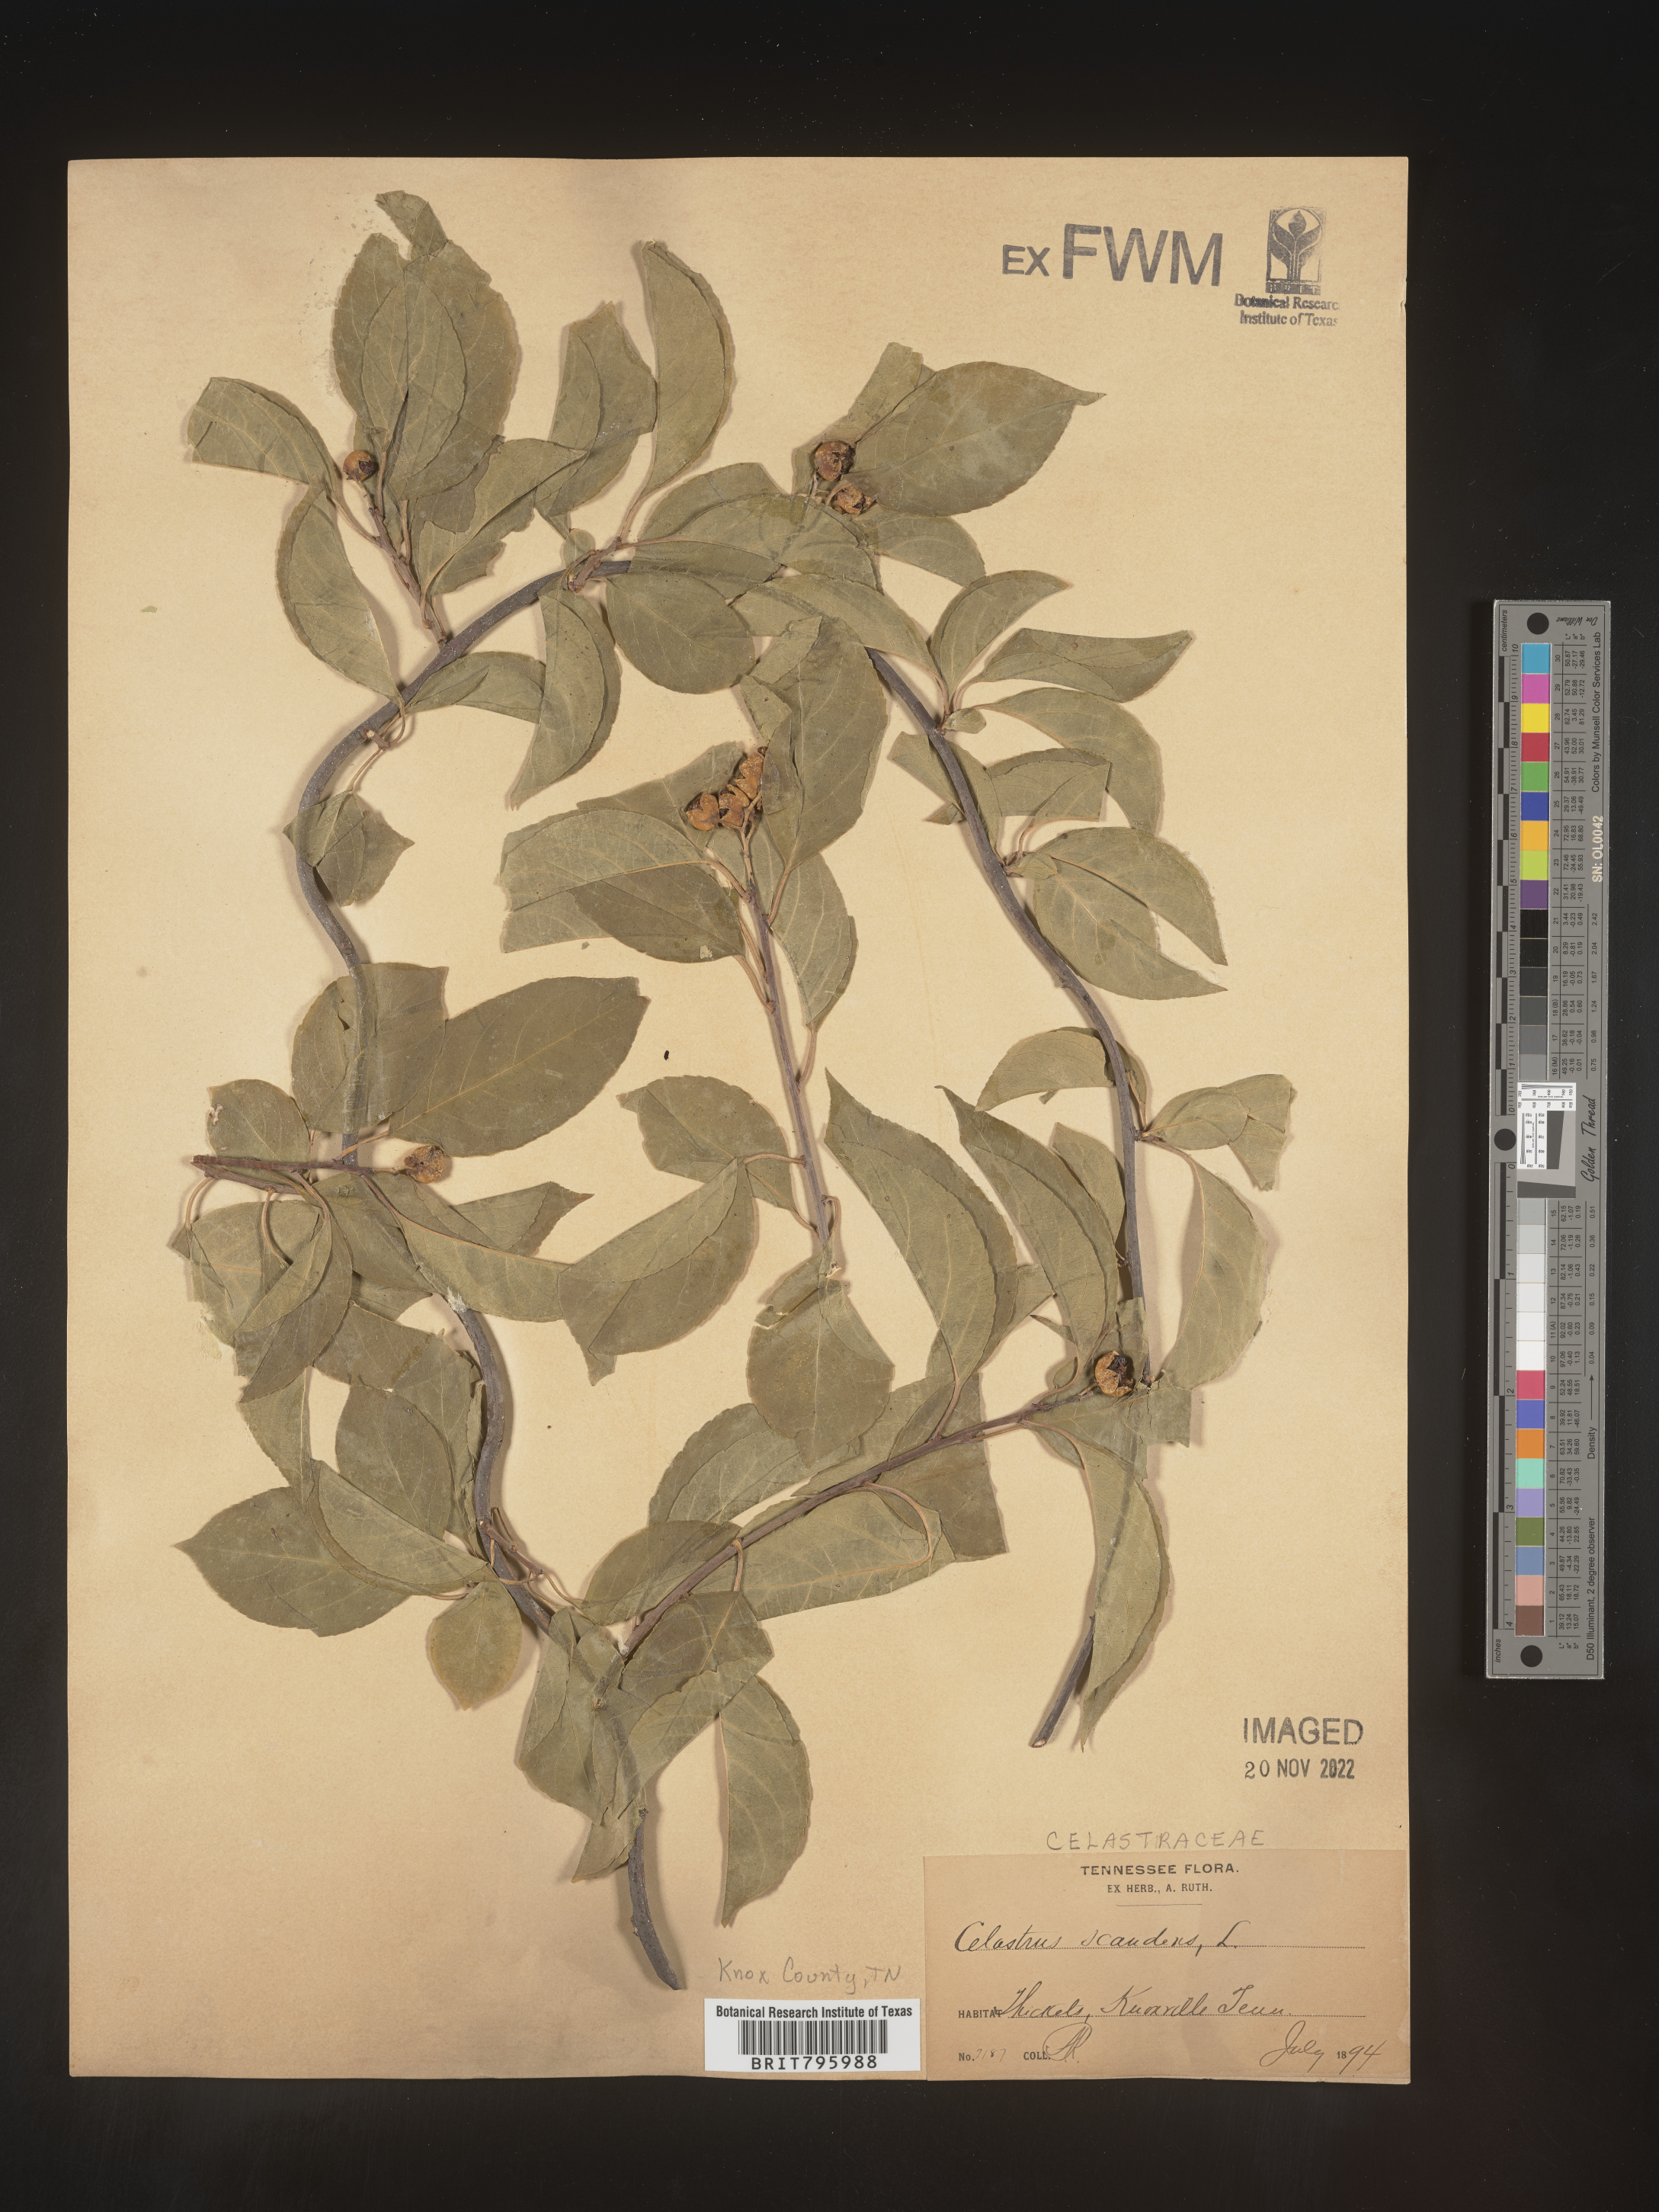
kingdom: Plantae
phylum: Tracheophyta
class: Magnoliopsida
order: Celastrales
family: Celastraceae
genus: Celastrus
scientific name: Celastrus
